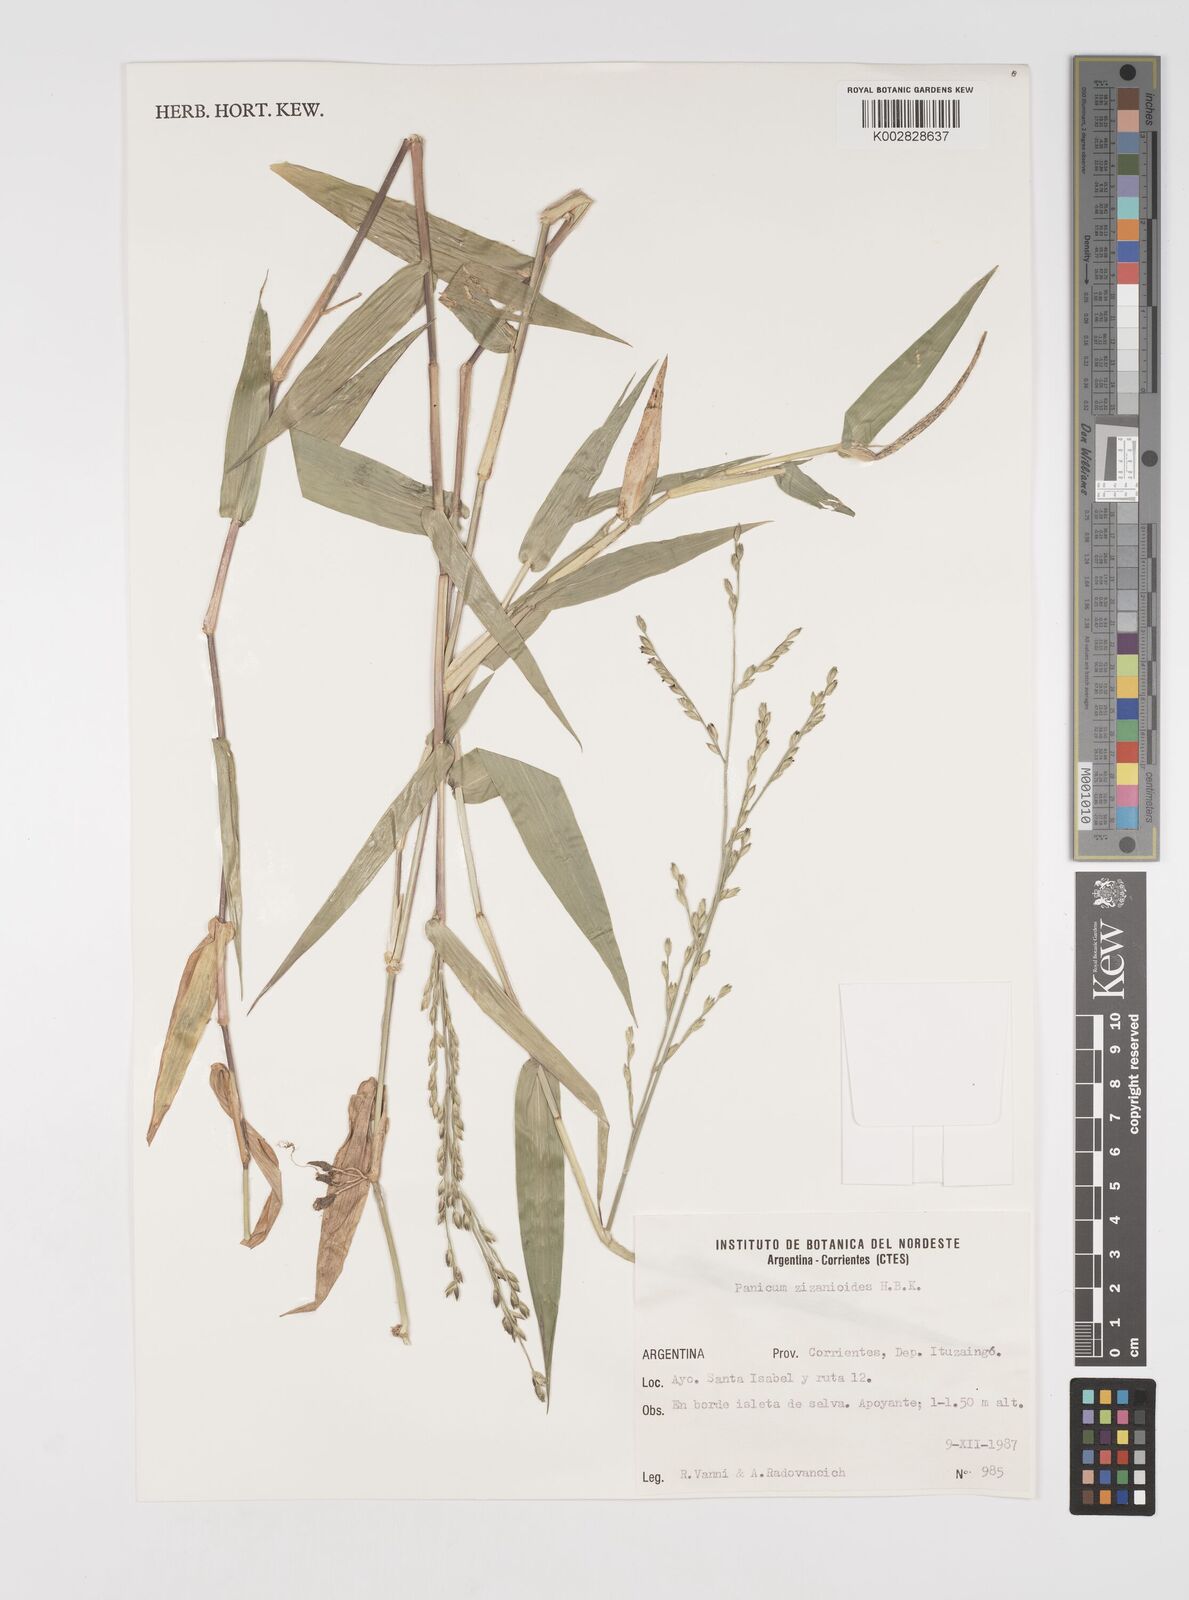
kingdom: Plantae
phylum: Tracheophyta
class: Liliopsida
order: Poales
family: Poaceae
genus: Acroceras
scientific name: Acroceras zizanioides
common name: Oat grass
